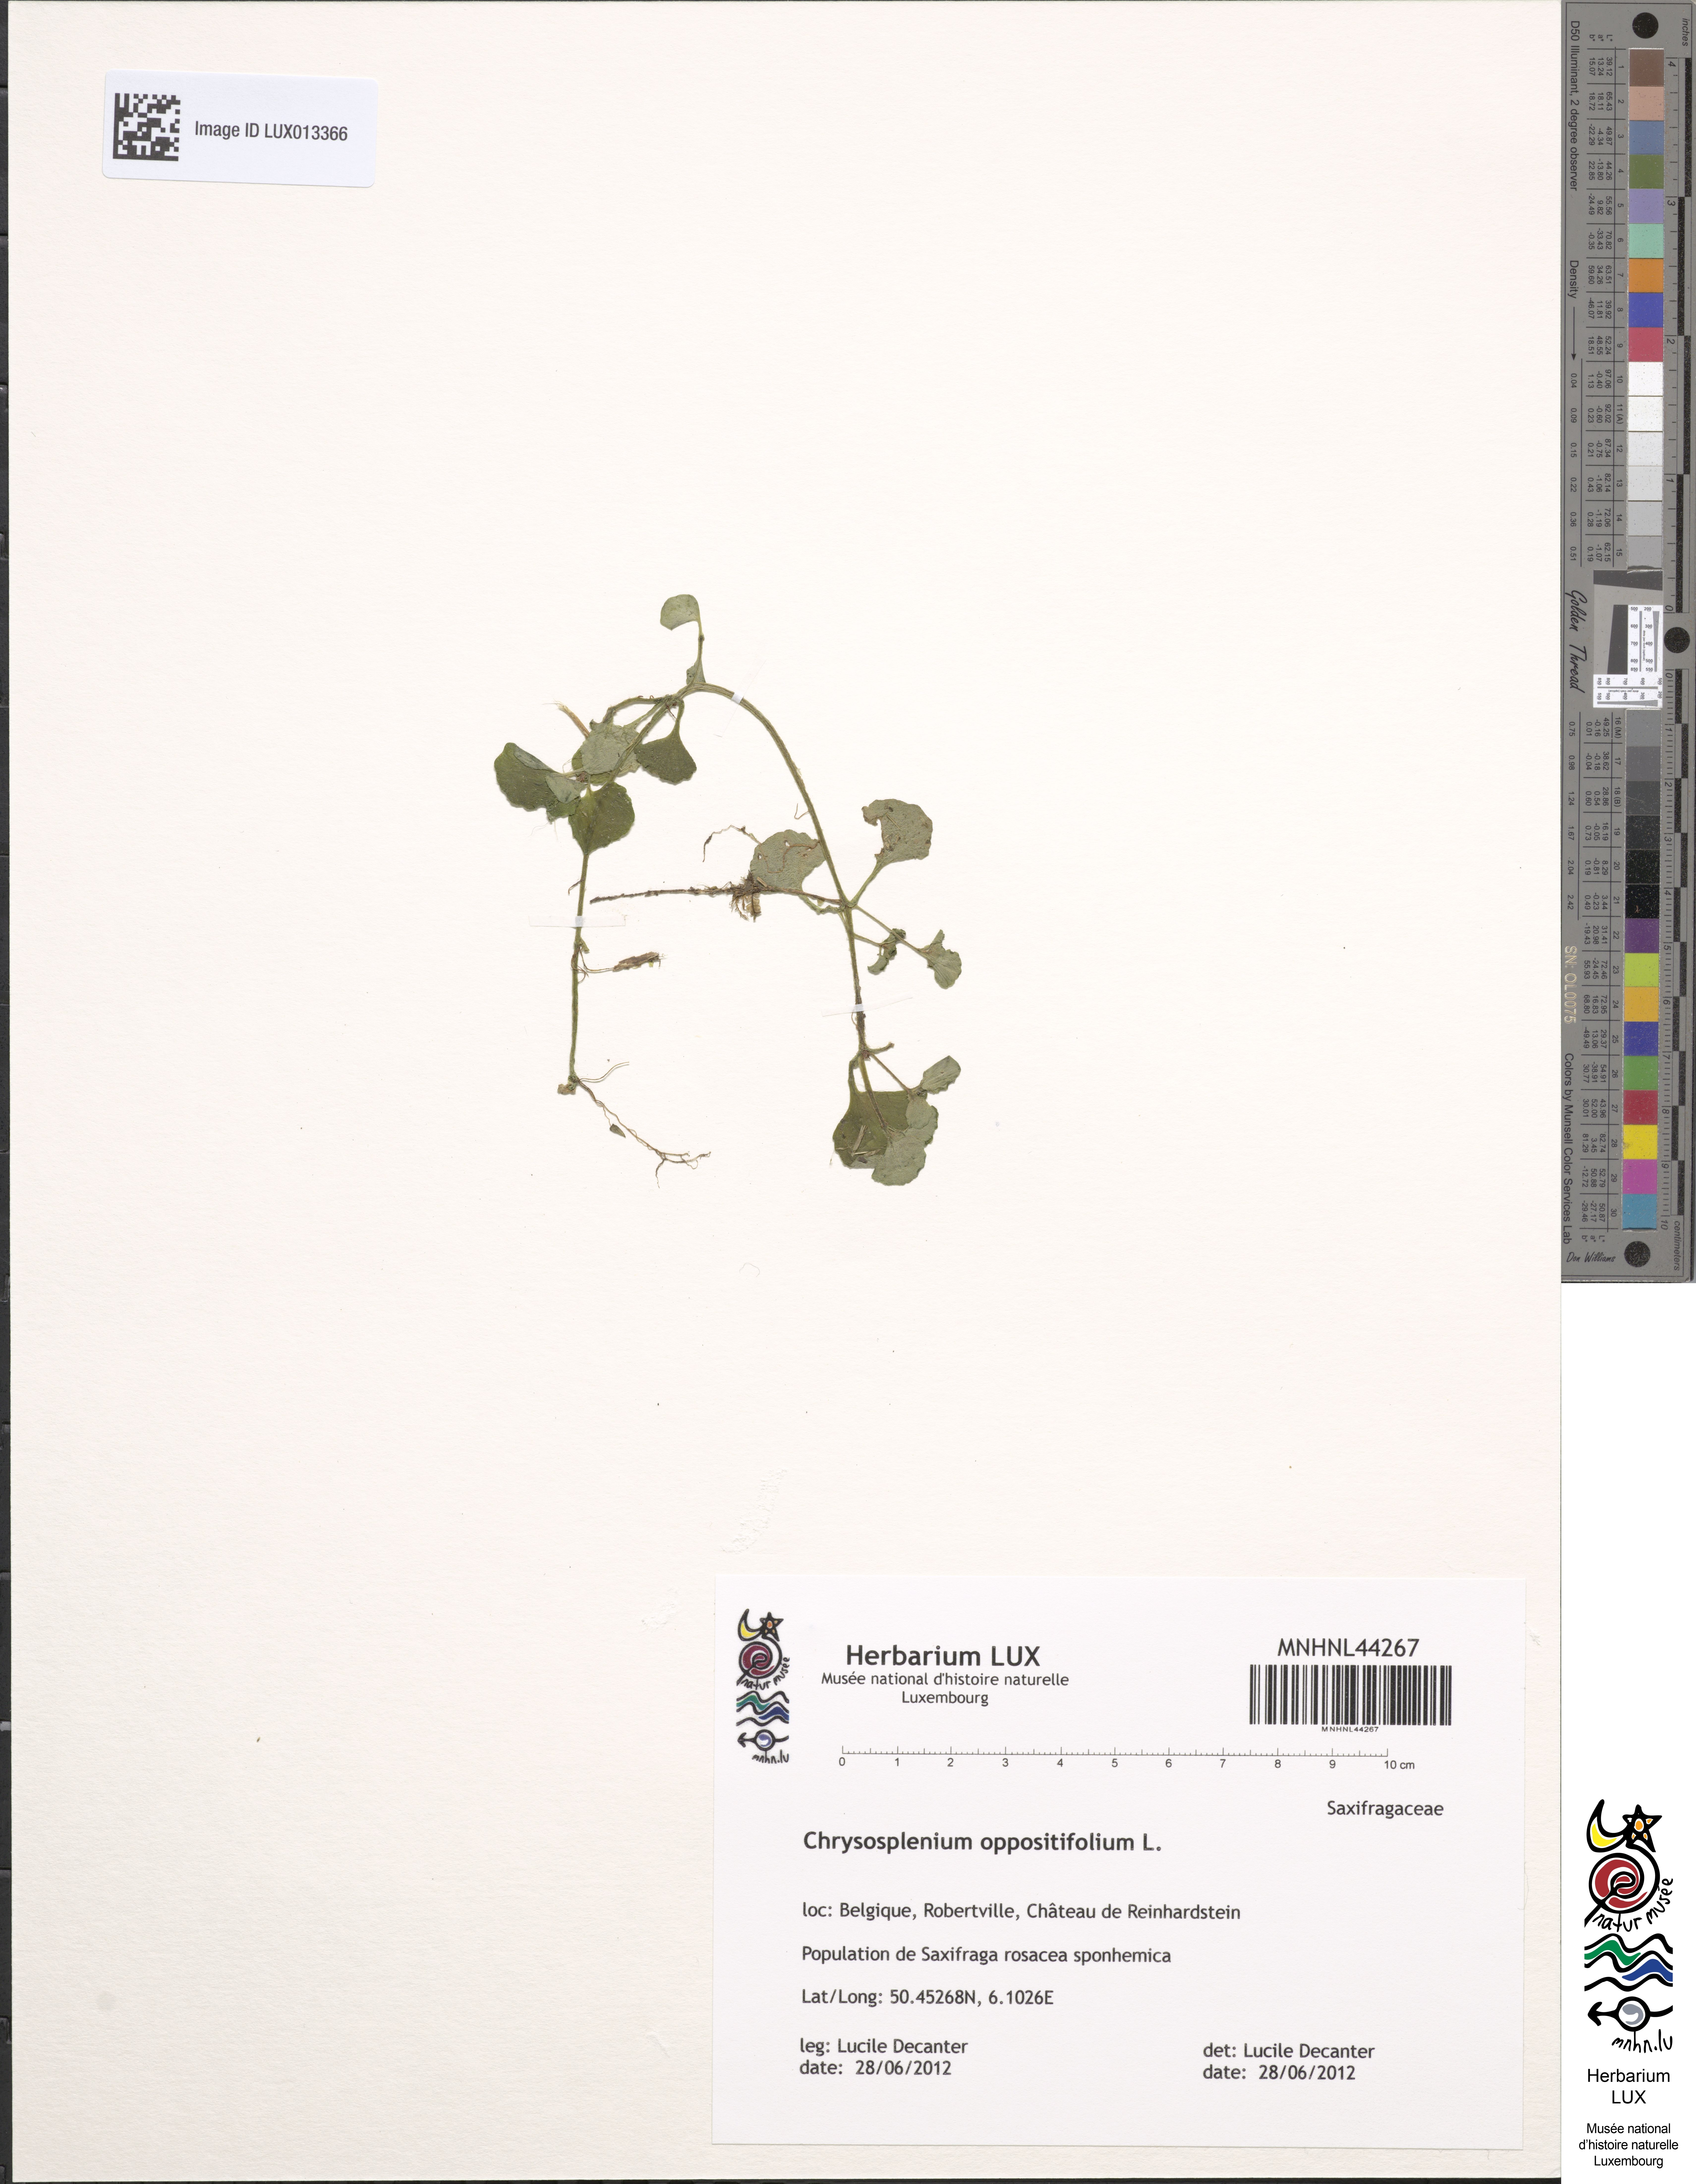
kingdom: Plantae
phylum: Tracheophyta
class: Magnoliopsida
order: Saxifragales
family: Saxifragaceae
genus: Chrysosplenium
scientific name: Chrysosplenium oppositifolium
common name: Opposite-leaved golden-saxifrage
